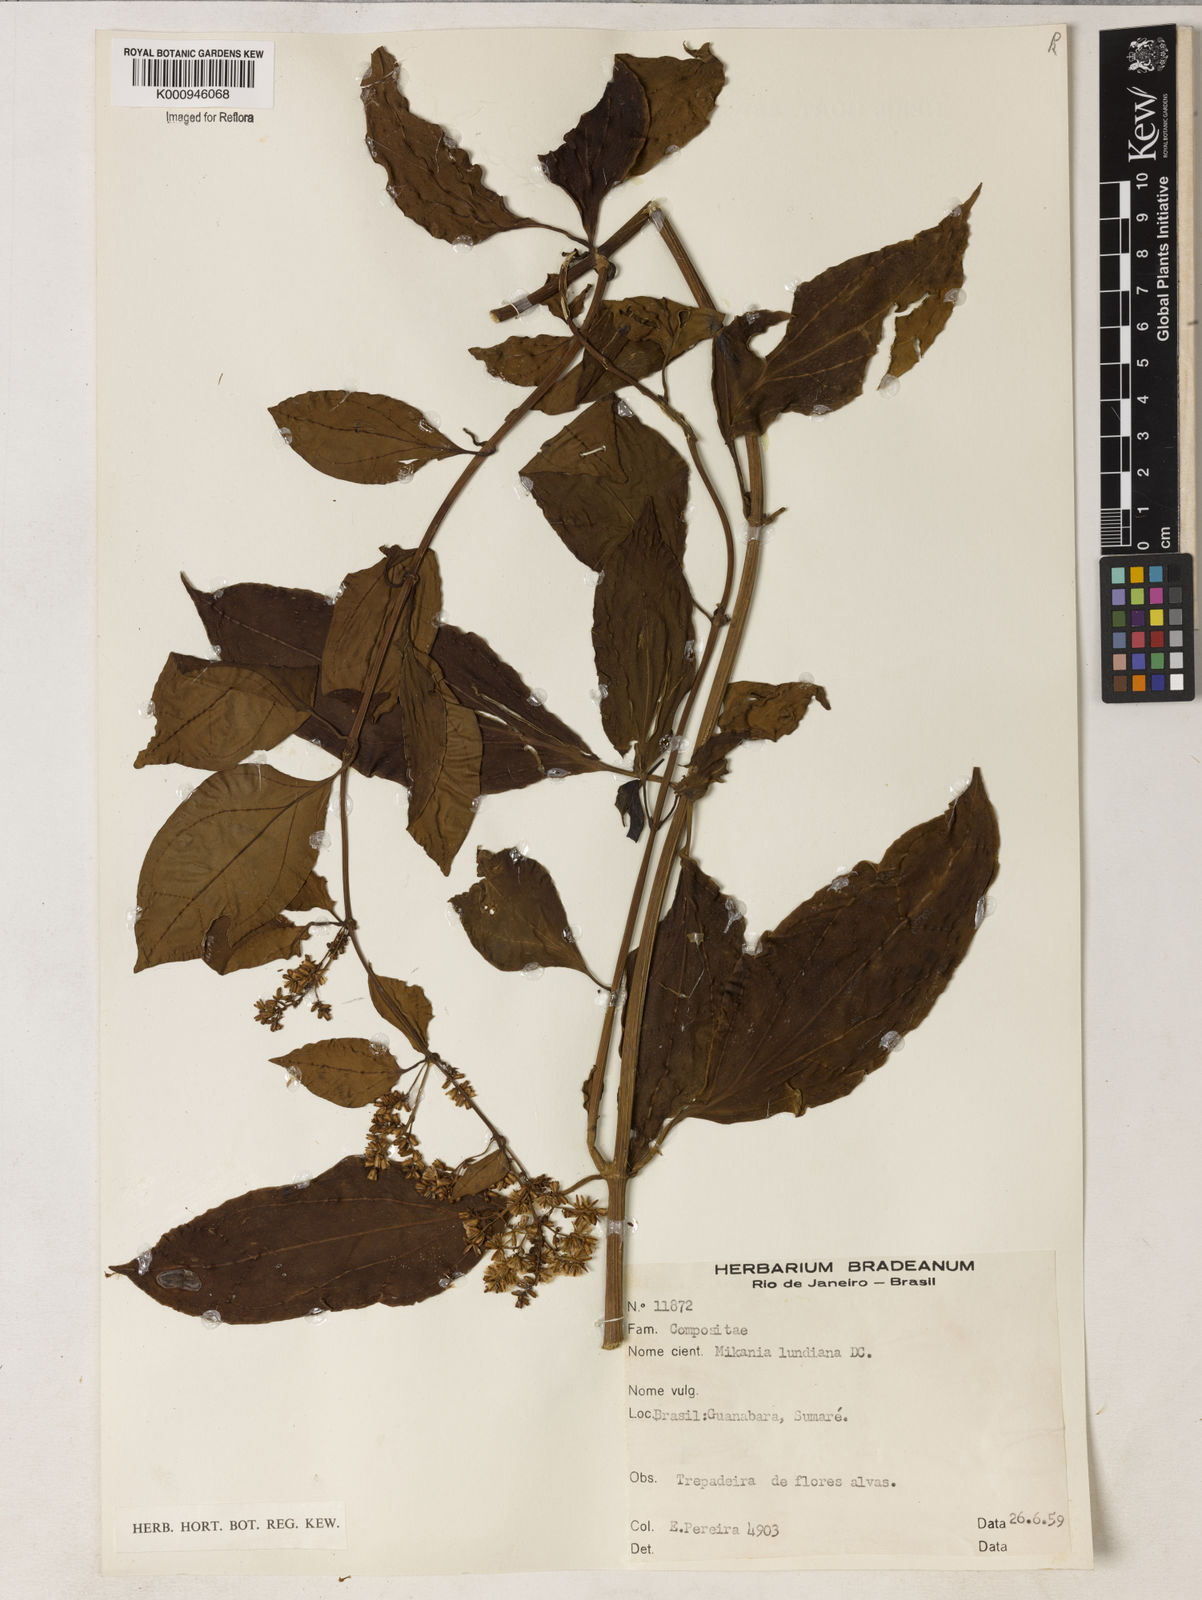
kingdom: Plantae
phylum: Tracheophyta
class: Magnoliopsida
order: Asterales
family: Asteraceae
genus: Mikania
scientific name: Mikania lundiana
